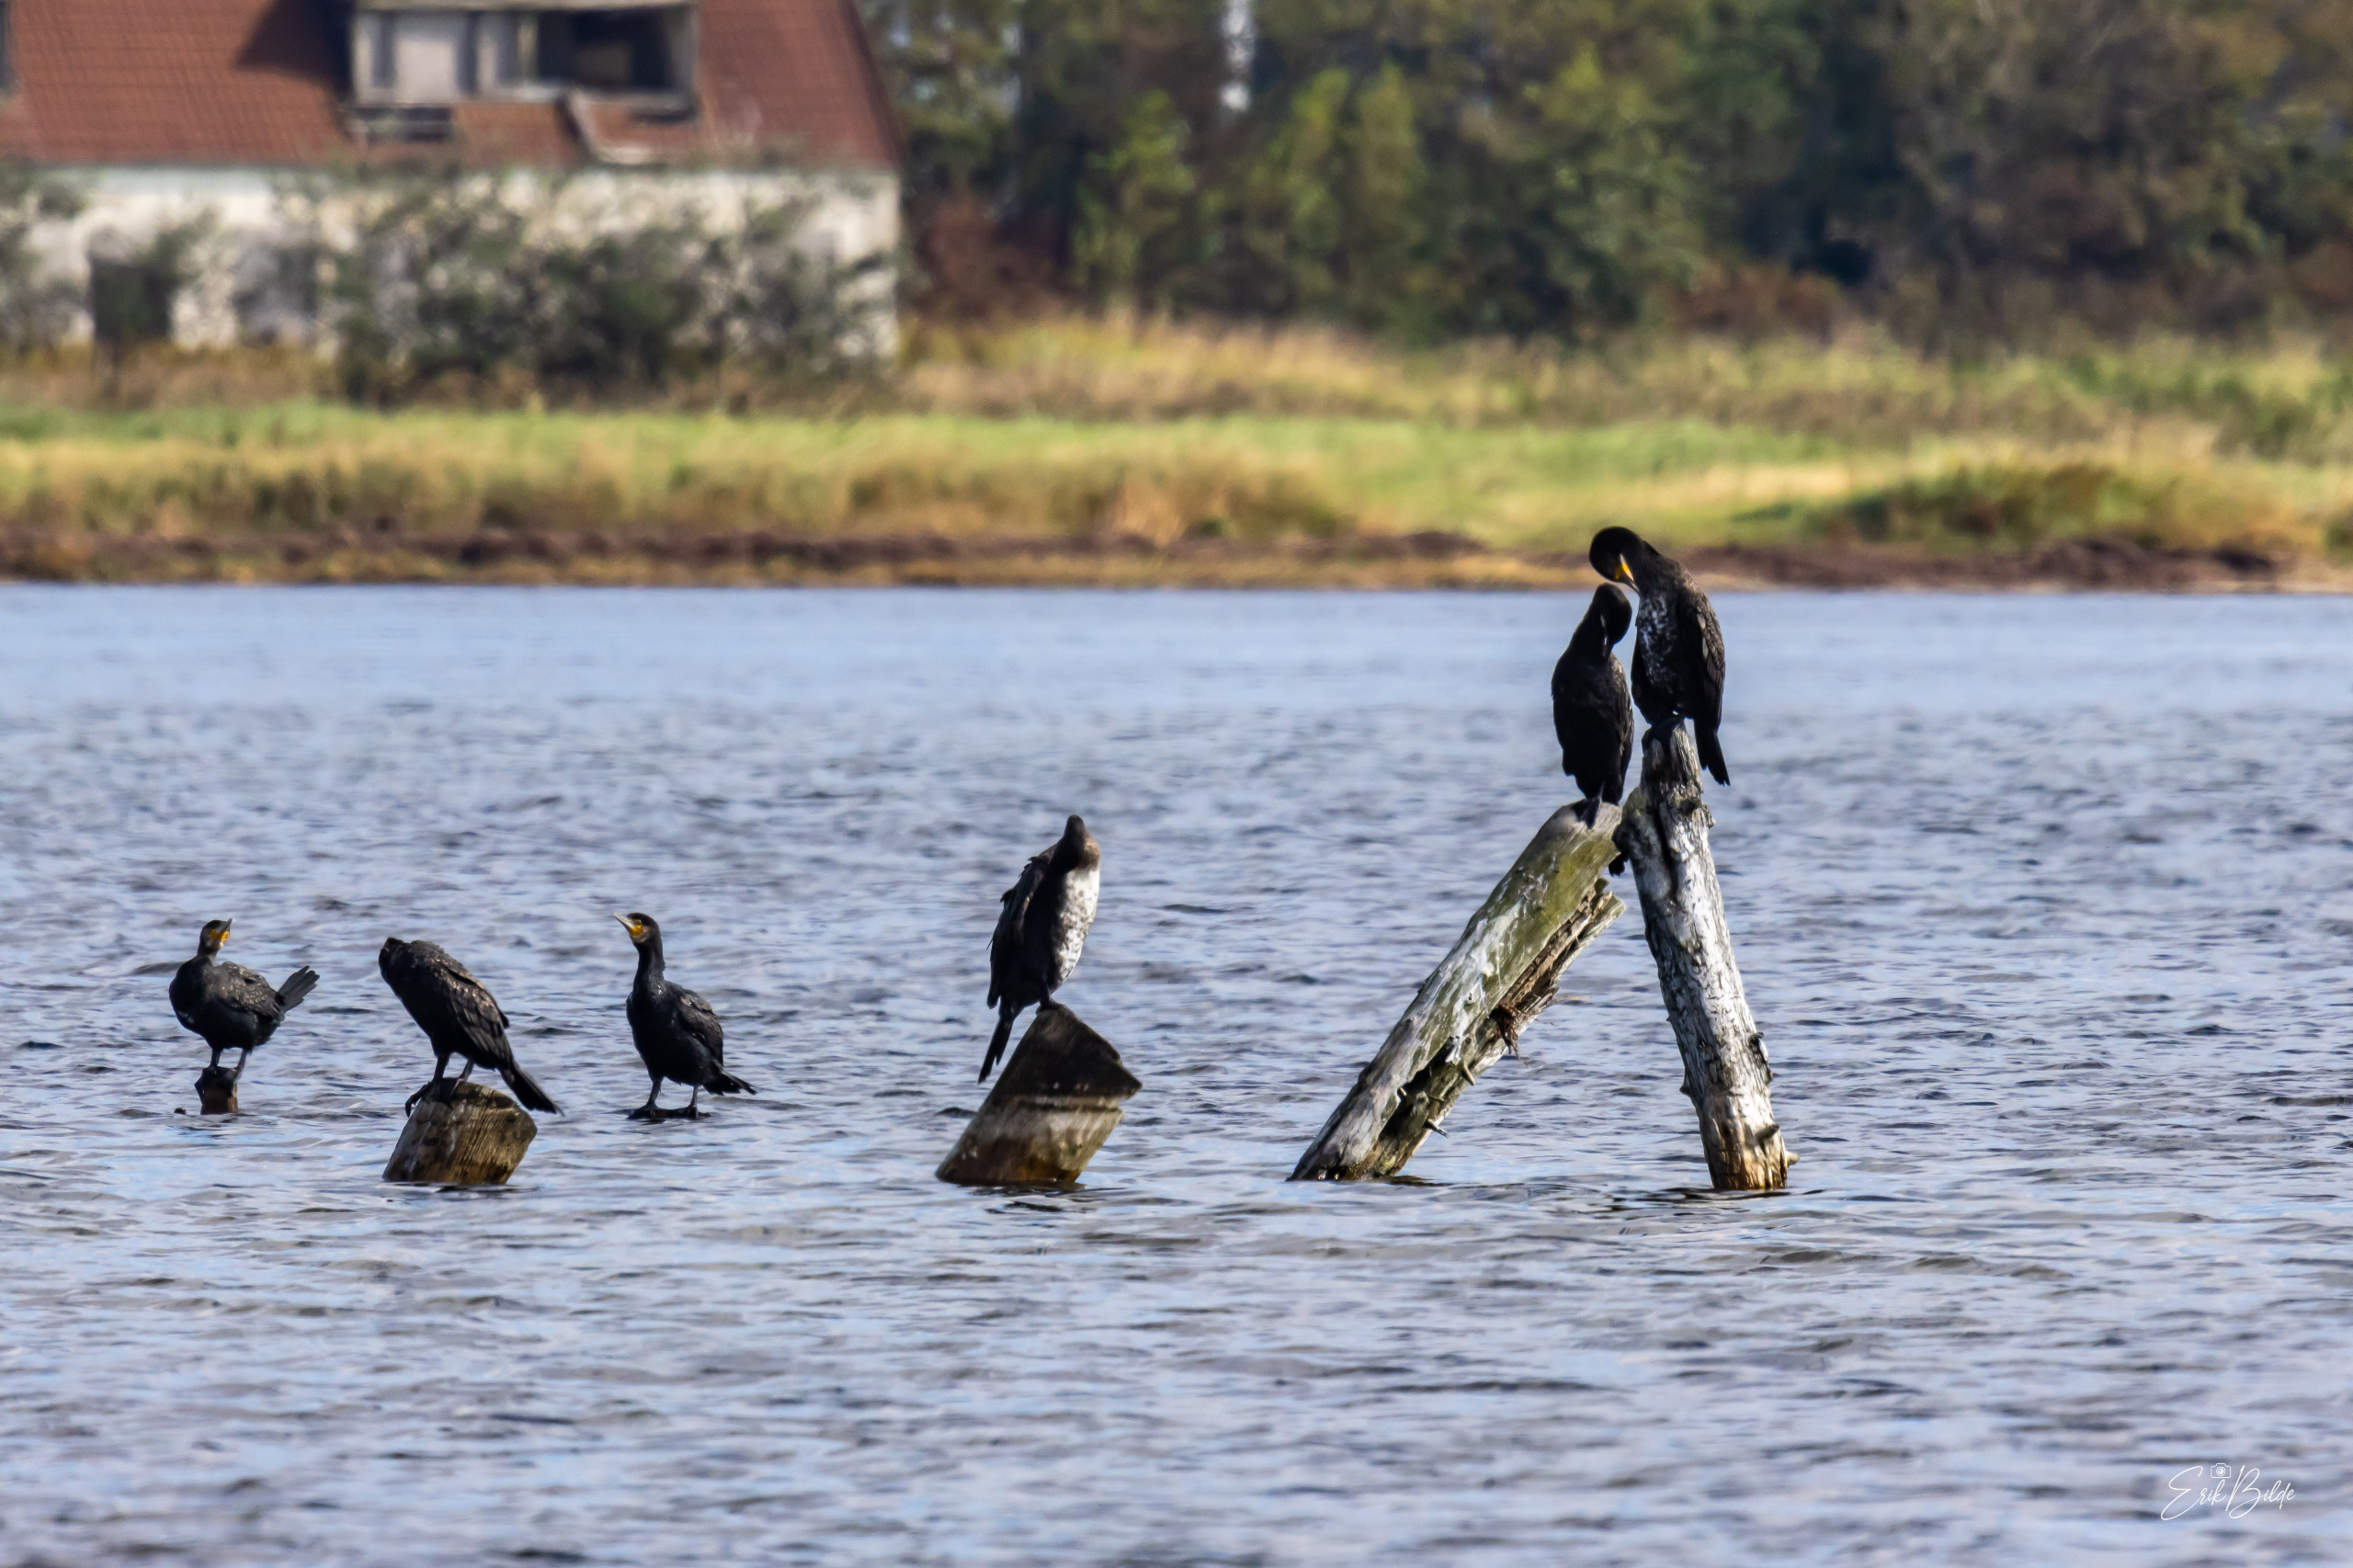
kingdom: Animalia
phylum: Chordata
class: Aves
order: Suliformes
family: Phalacrocoracidae
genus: Phalacrocorax
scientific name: Phalacrocorax carbo
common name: Skarv
